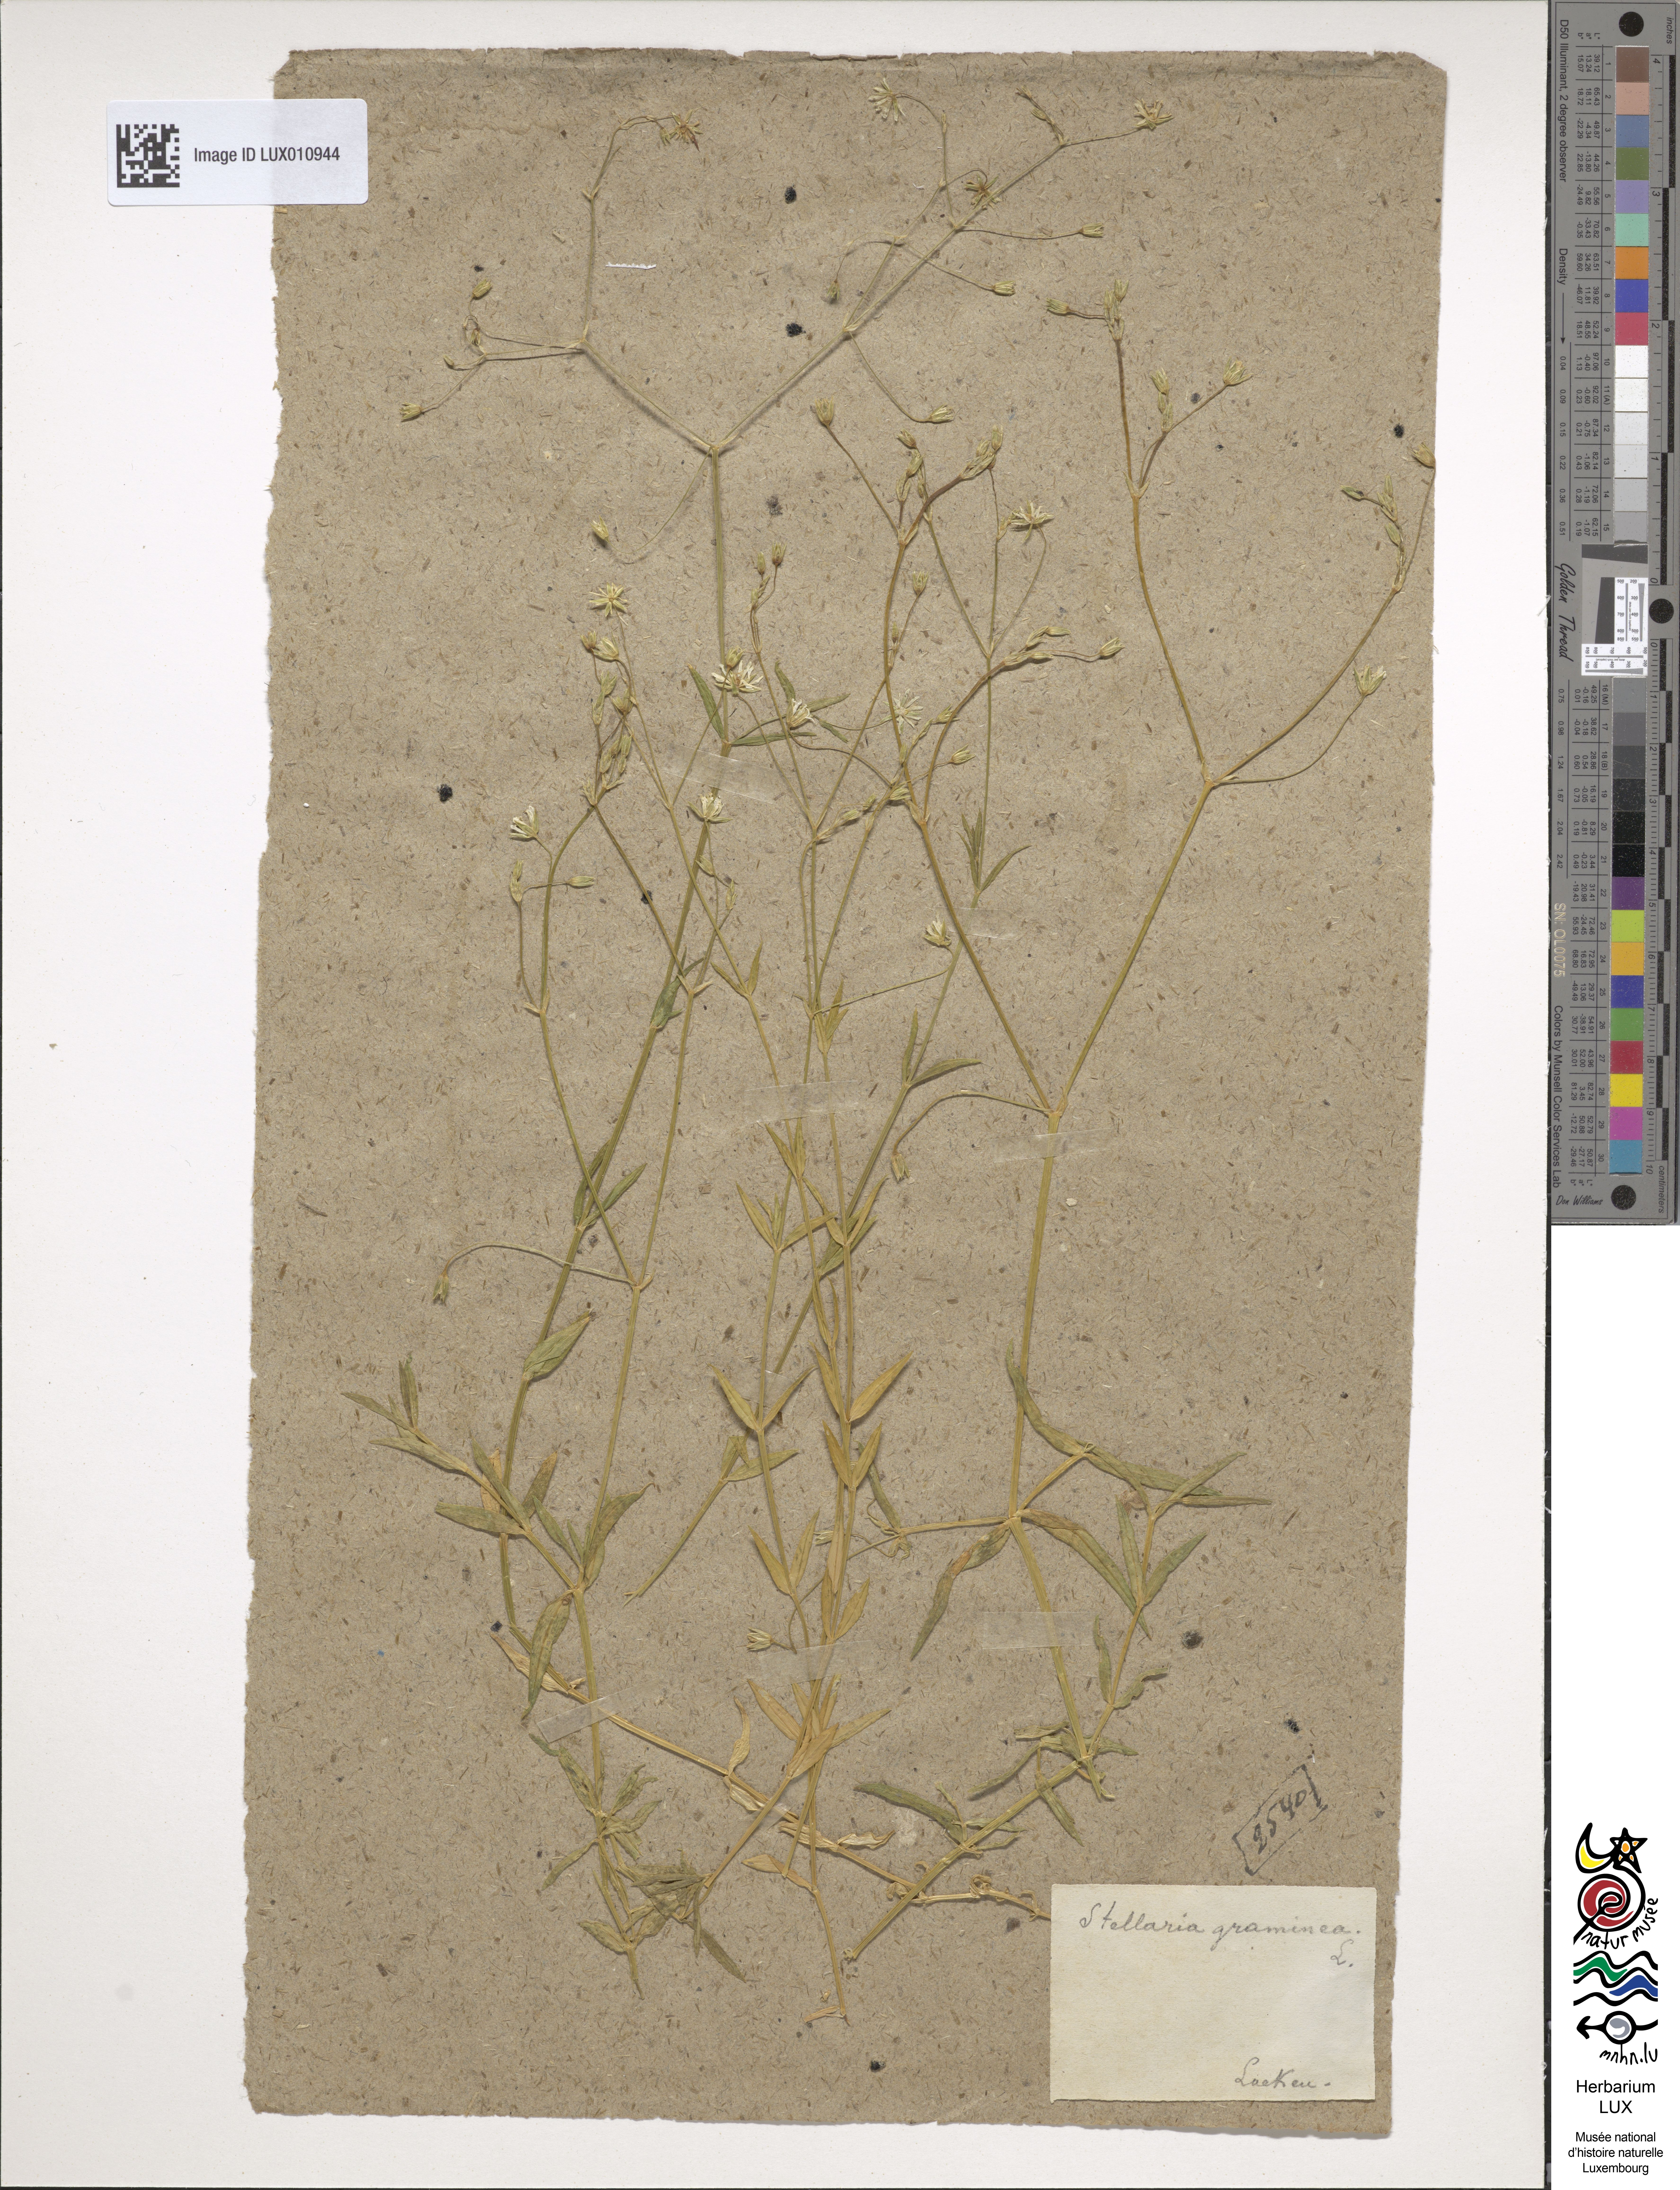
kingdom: Plantae
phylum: Tracheophyta
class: Magnoliopsida
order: Caryophyllales
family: Caryophyllaceae
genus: Stellaria
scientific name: Stellaria graminea
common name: Grass-like starwort
